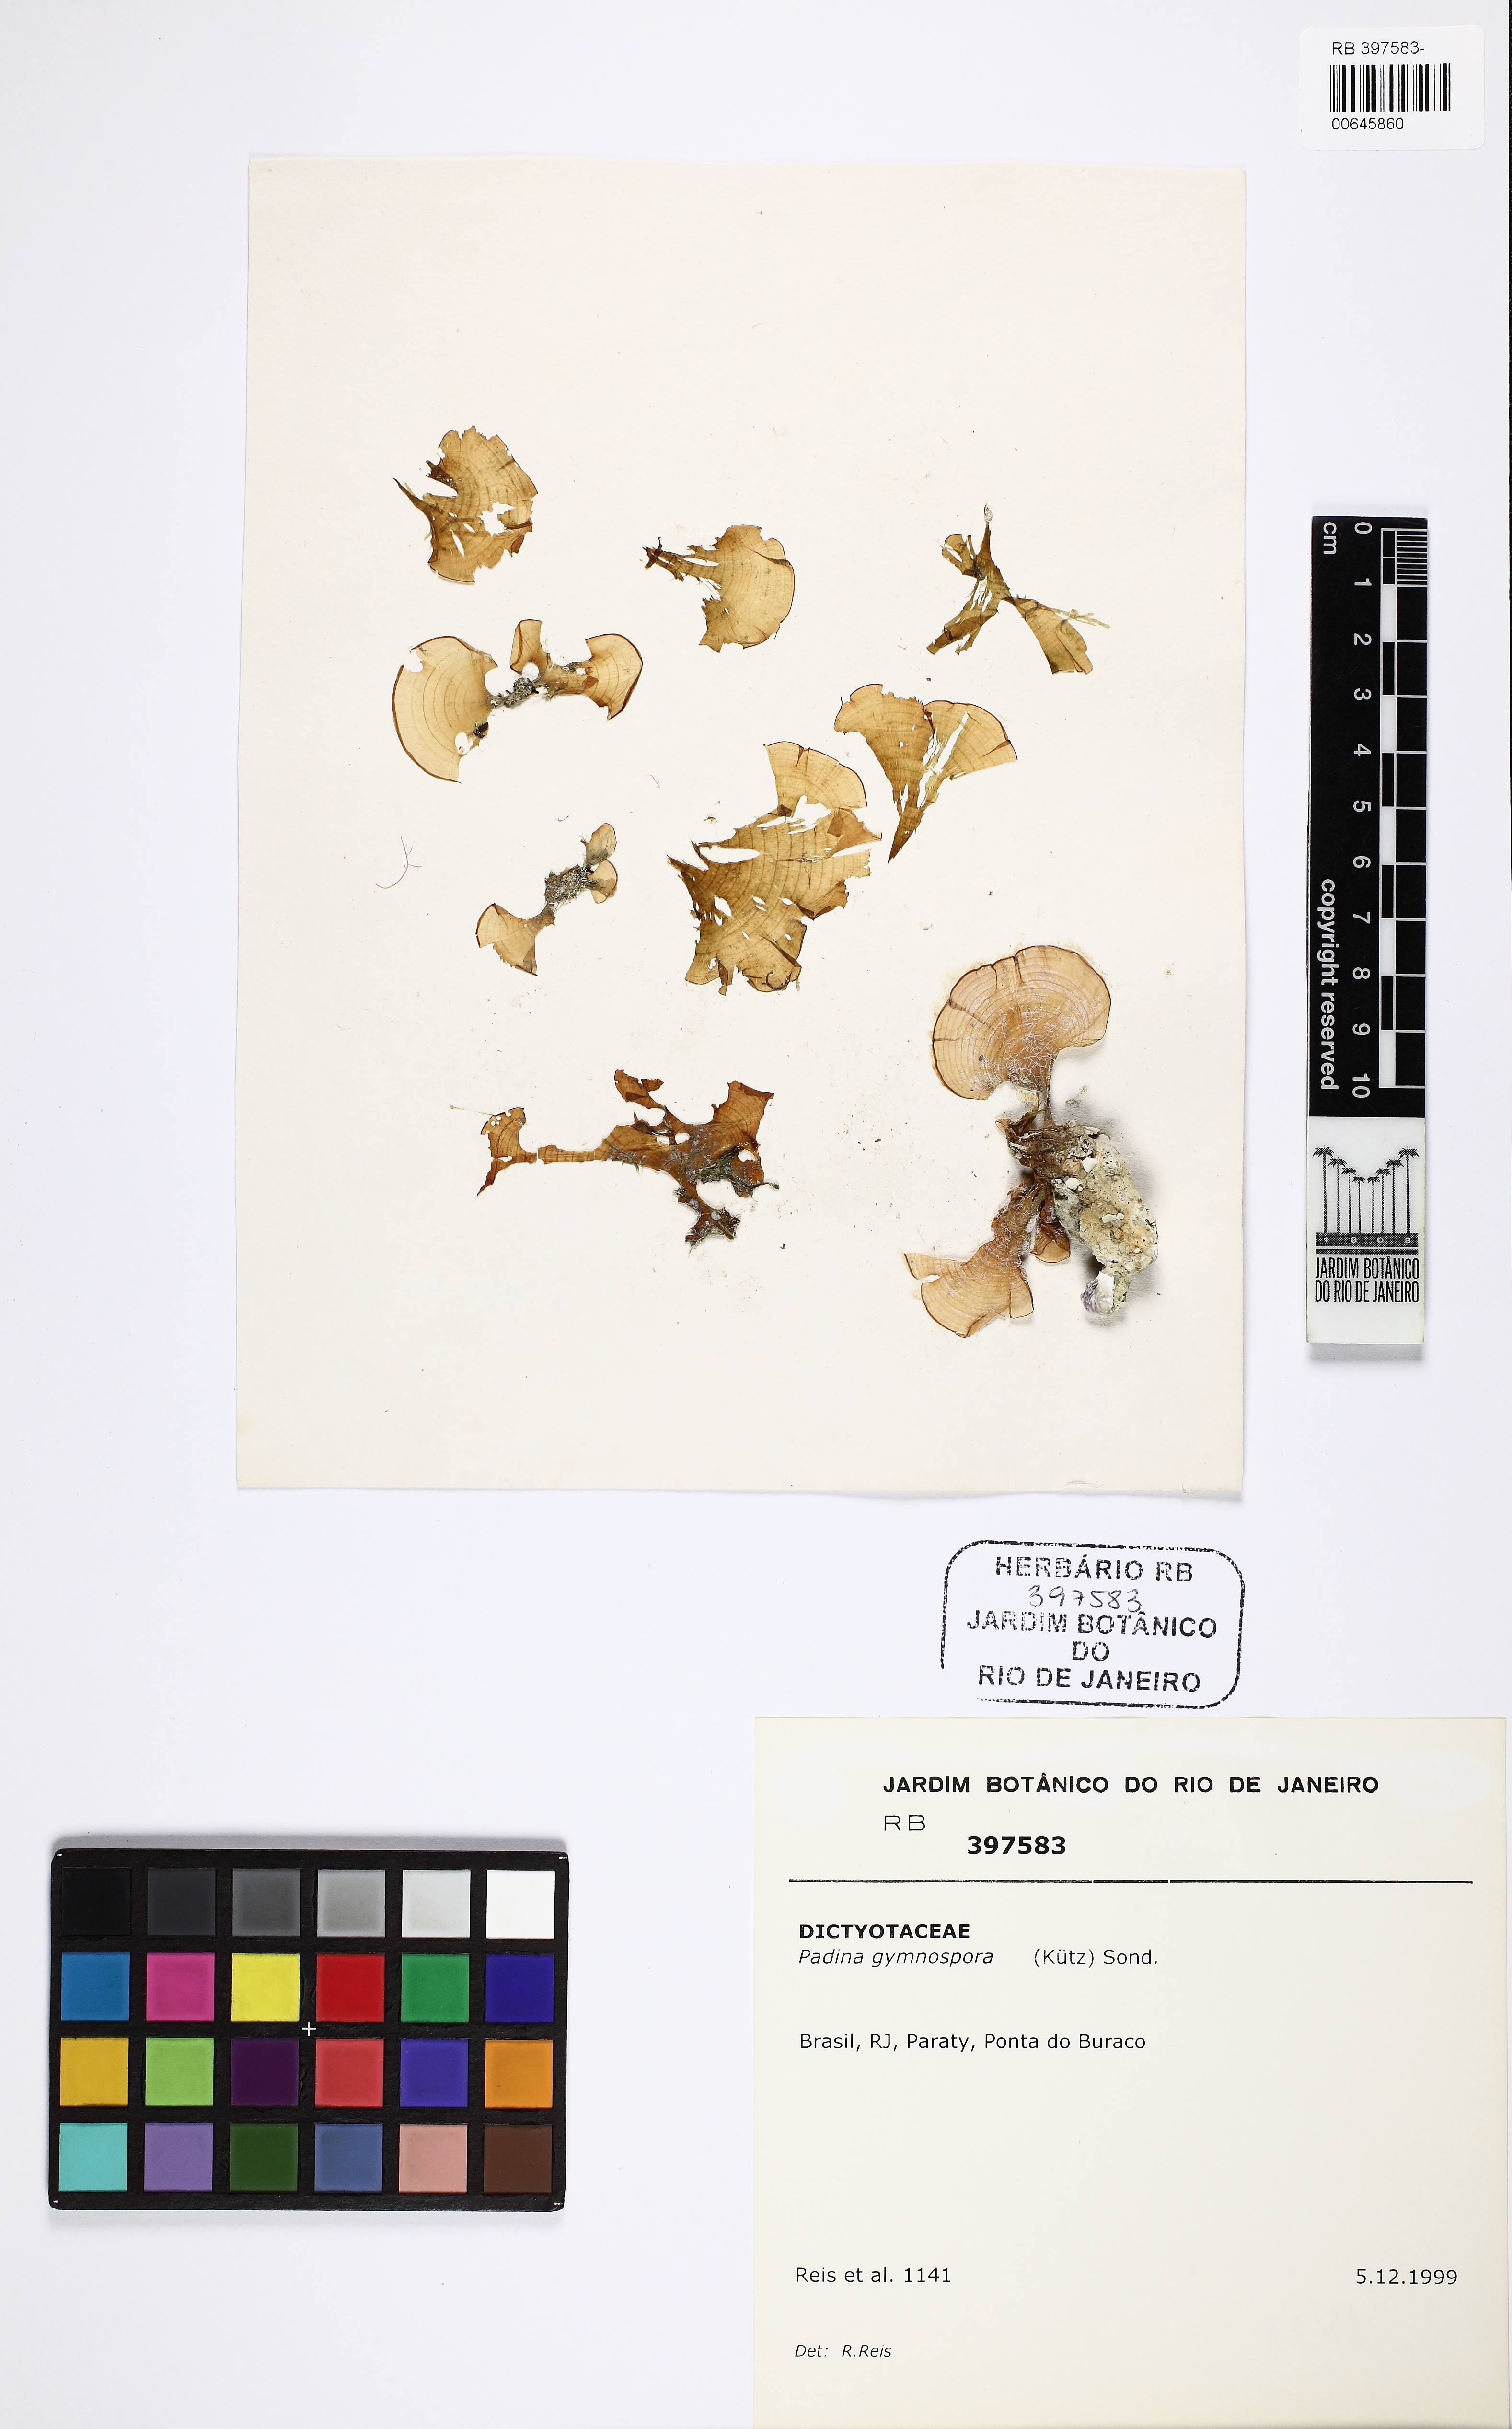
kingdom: Chromista
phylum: Ochrophyta
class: Phaeophyceae
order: Dictyotales
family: Dictyotaceae
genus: Padina
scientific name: Padina gymnospora
